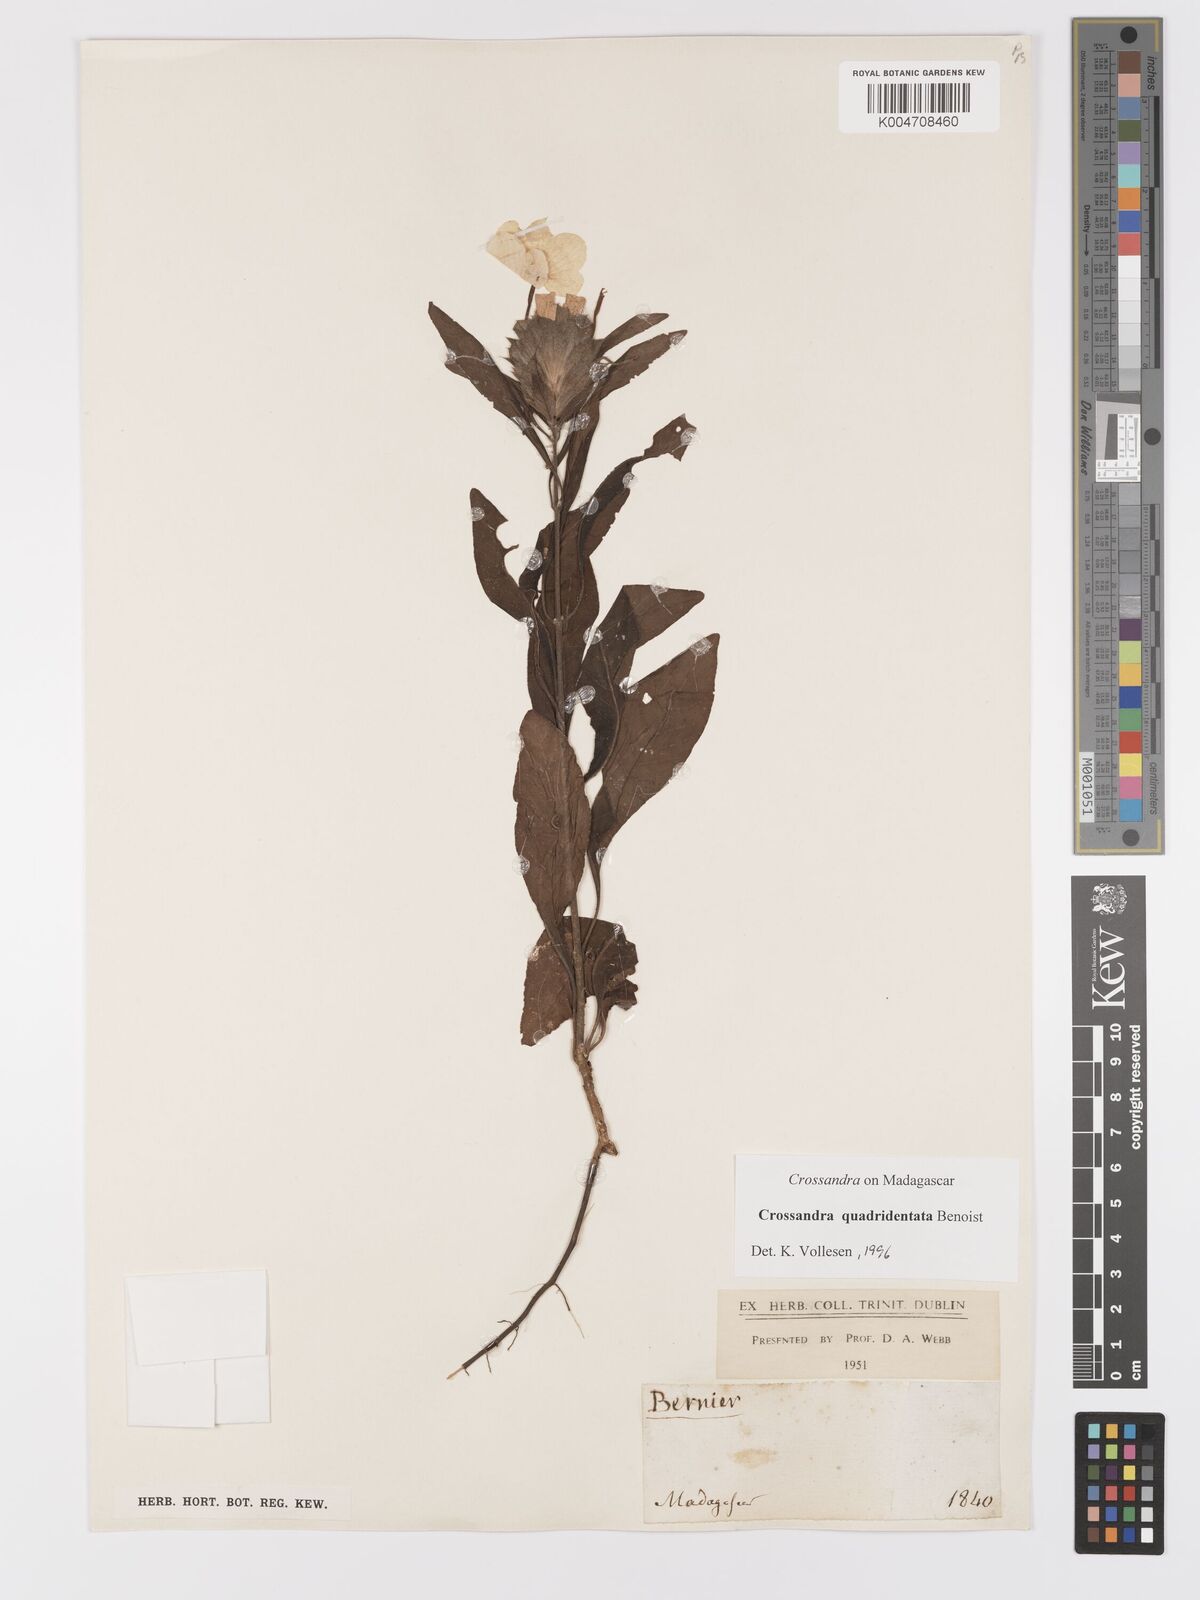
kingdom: Plantae
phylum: Tracheophyta
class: Magnoliopsida
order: Lamiales
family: Acanthaceae
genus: Crossandra
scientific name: Crossandra quadridentata
